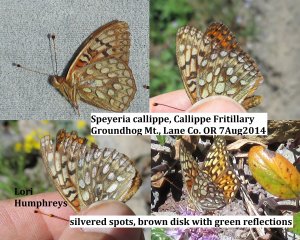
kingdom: Animalia
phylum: Arthropoda
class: Insecta
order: Lepidoptera
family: Nymphalidae
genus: Speyeria
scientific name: Speyeria callippe
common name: Callippe Fritillary
